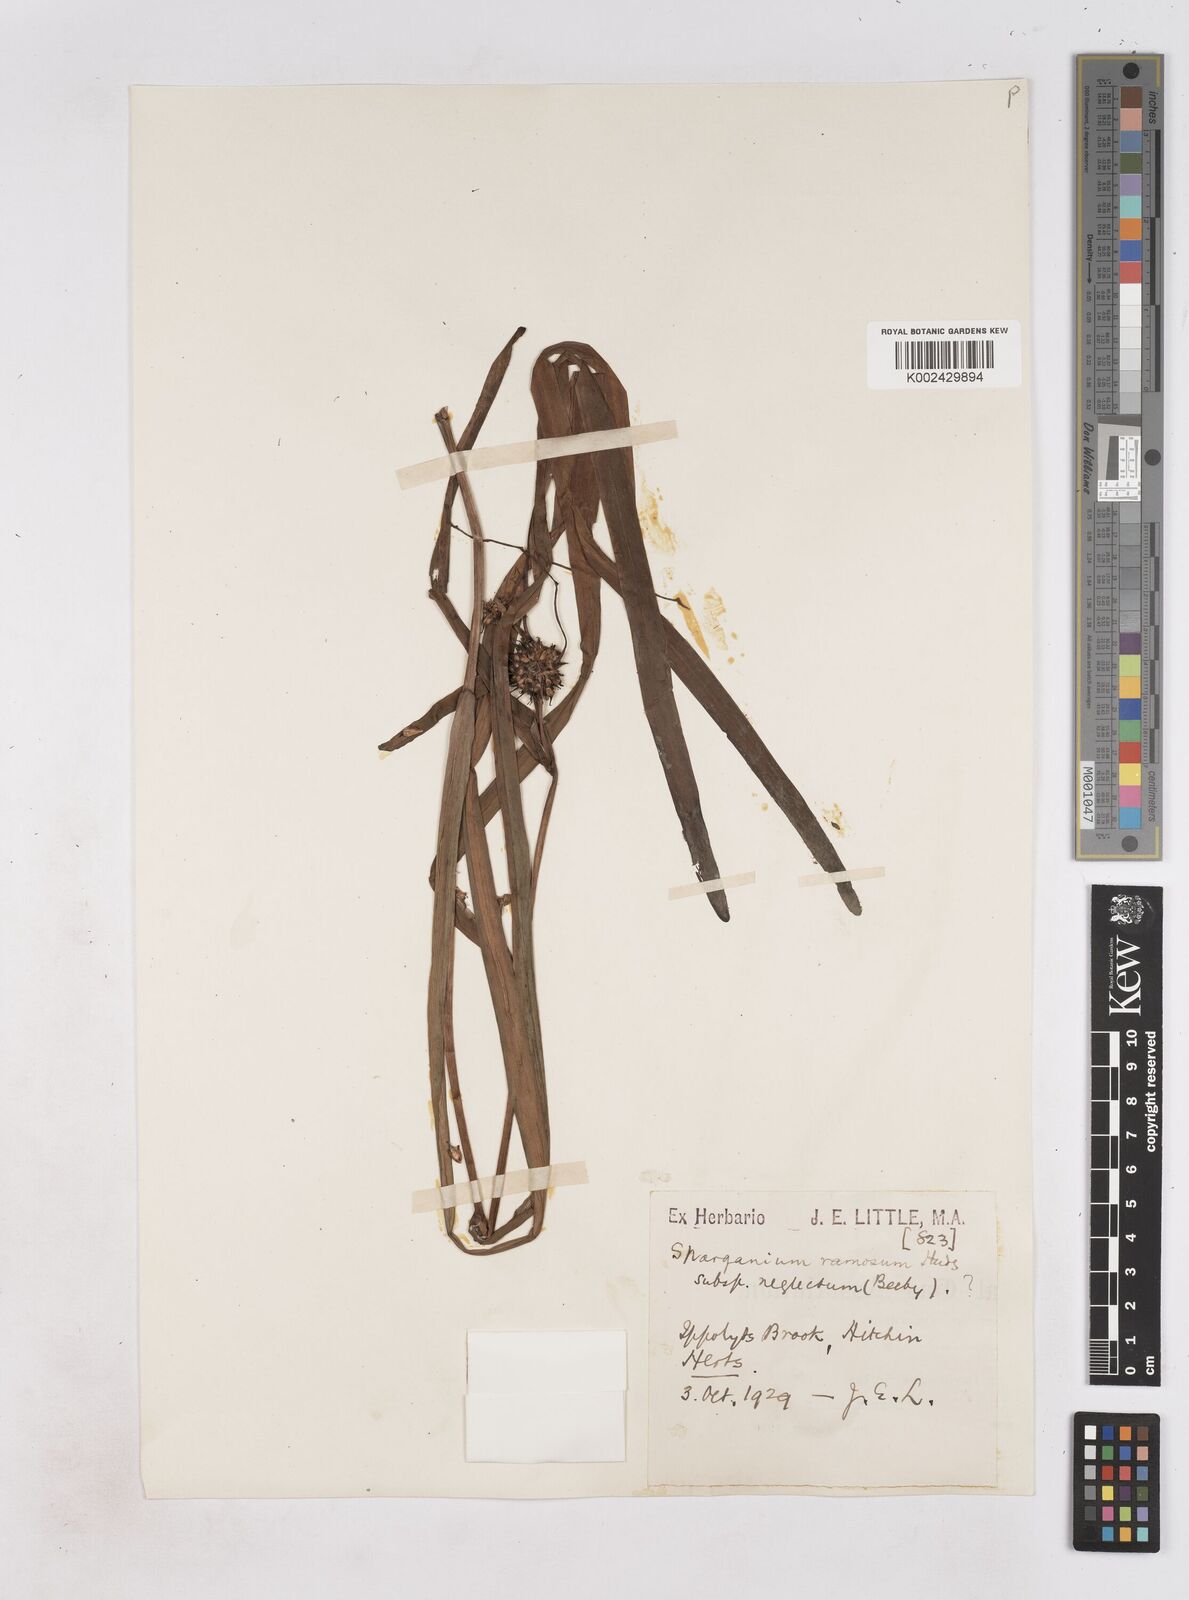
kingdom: Plantae
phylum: Tracheophyta
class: Liliopsida
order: Poales
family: Typhaceae
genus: Sparganium
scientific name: Sparganium erectum
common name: Branched bur-reed
